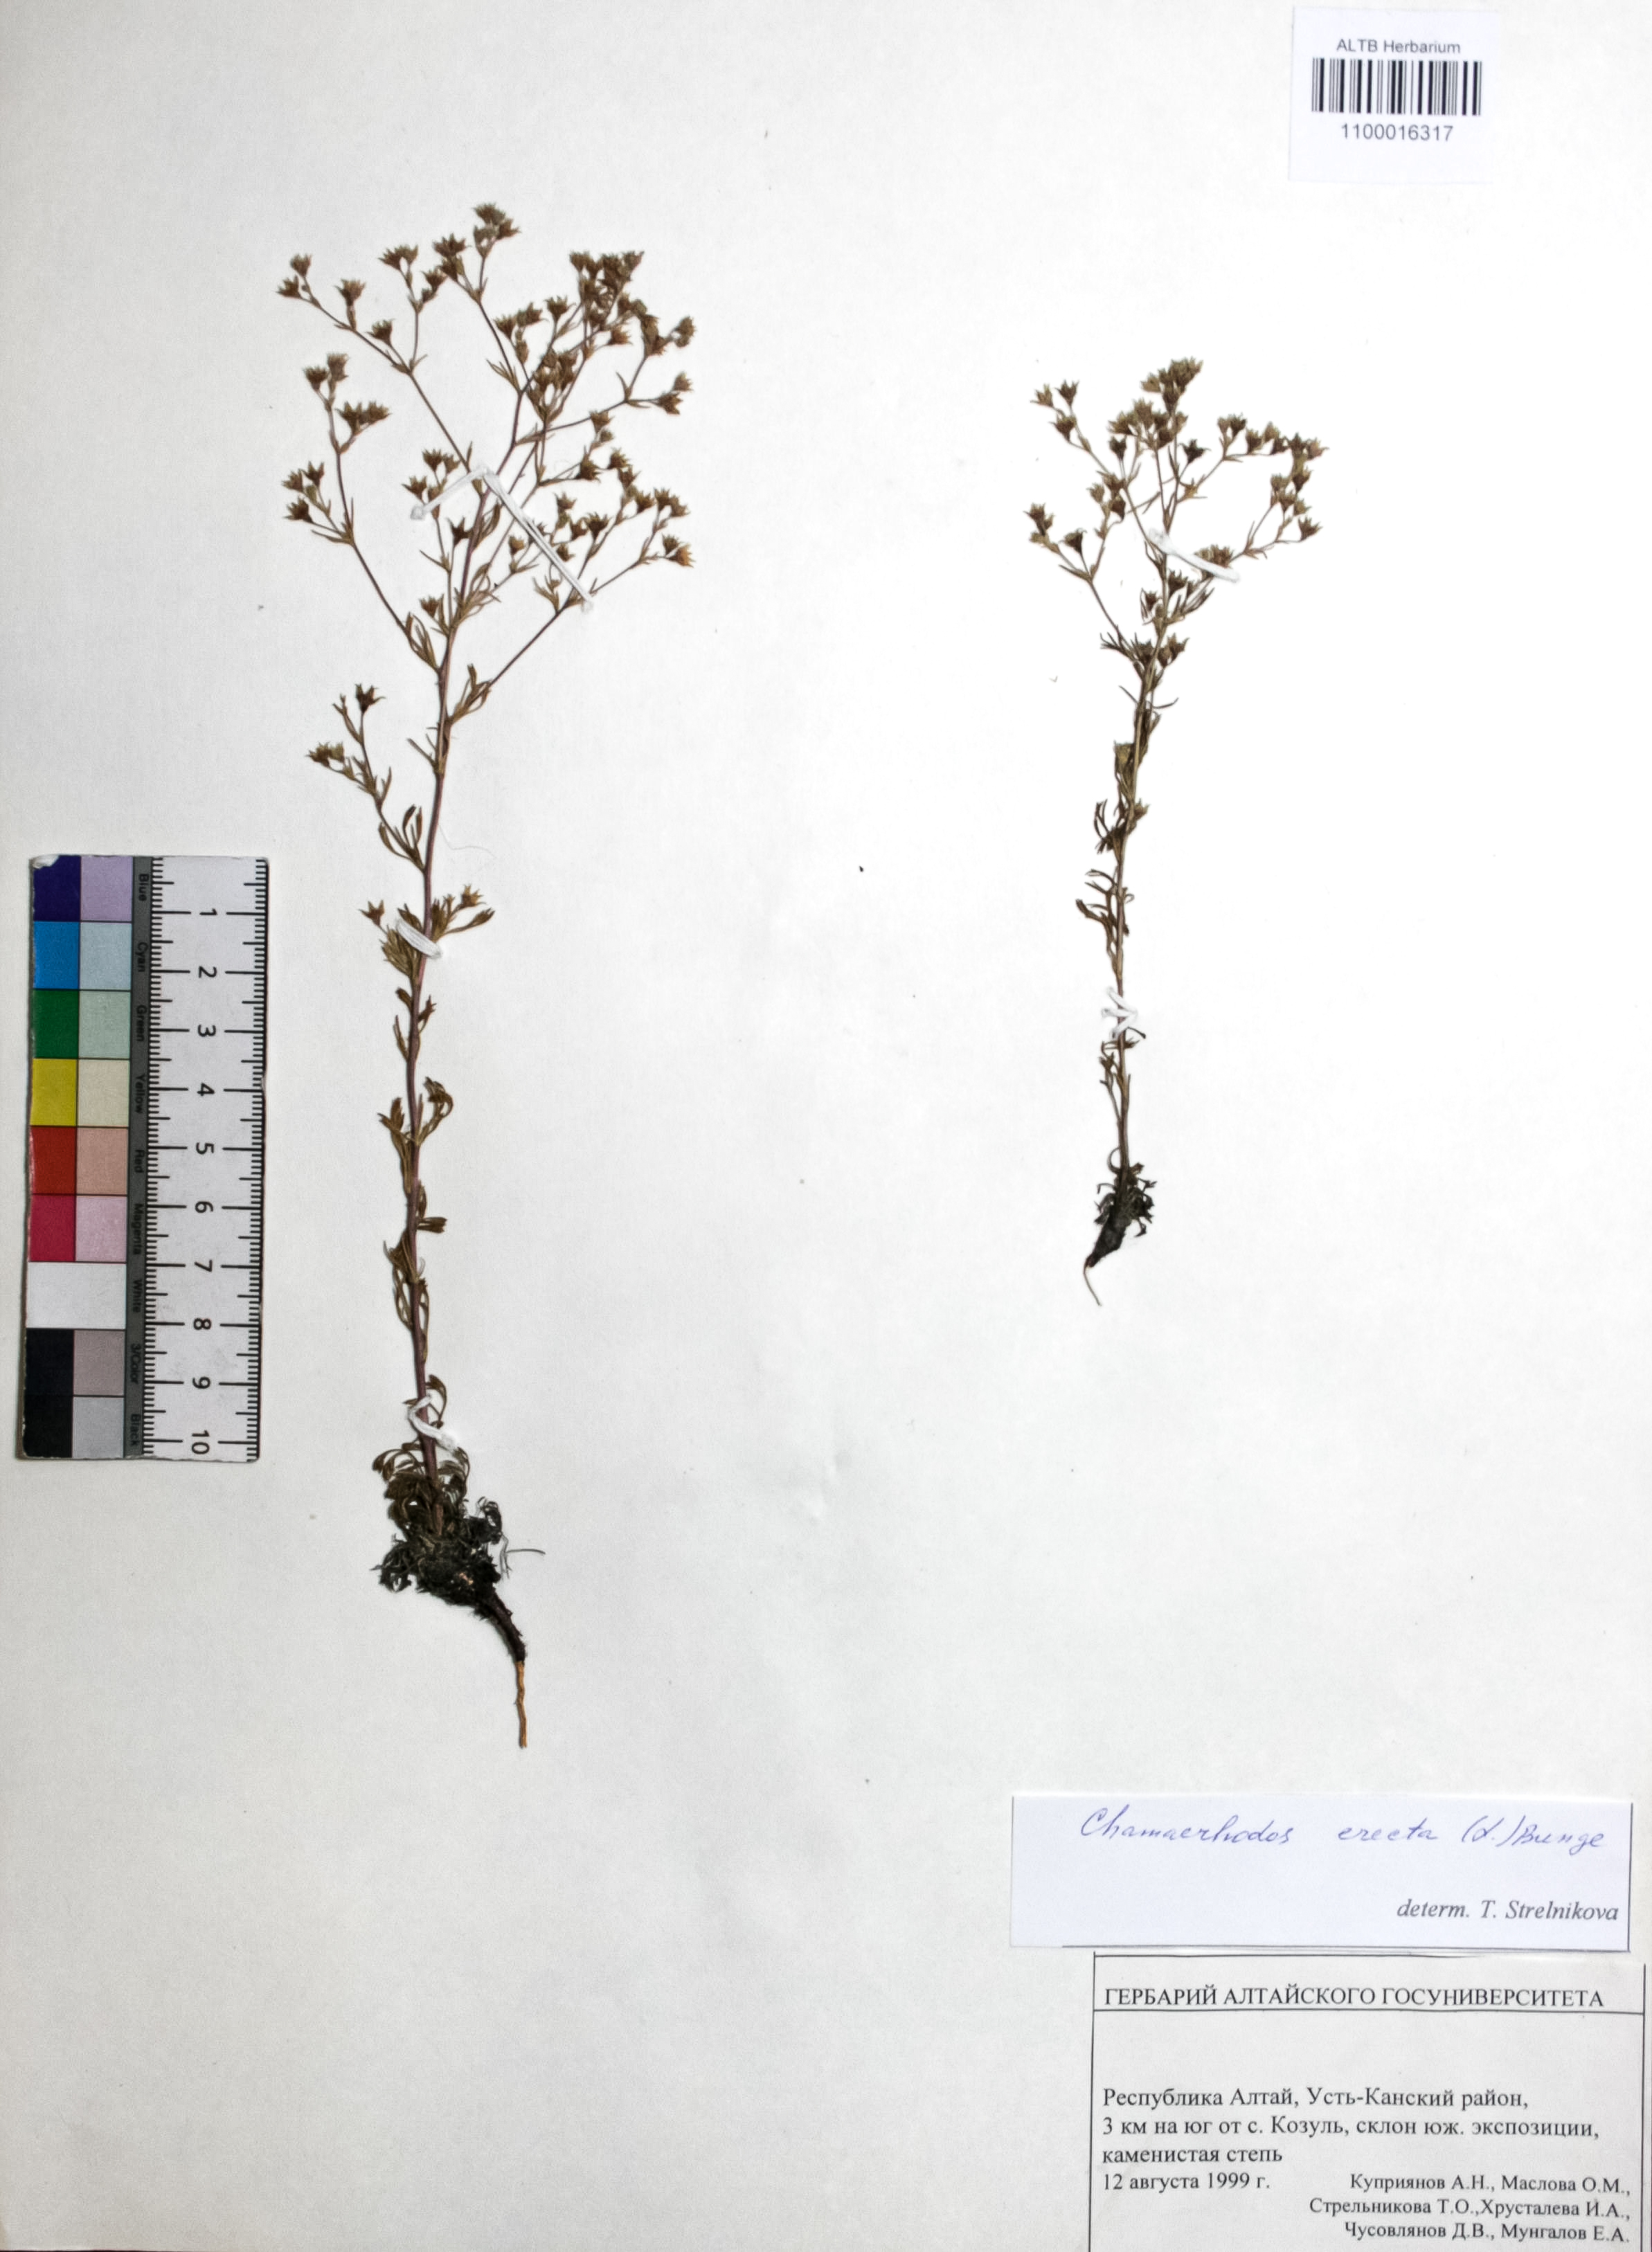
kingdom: Plantae
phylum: Tracheophyta
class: Magnoliopsida
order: Rosales
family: Rosaceae
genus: Chamaerhodos
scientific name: Chamaerhodos erecta
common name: American chamaerhodos
